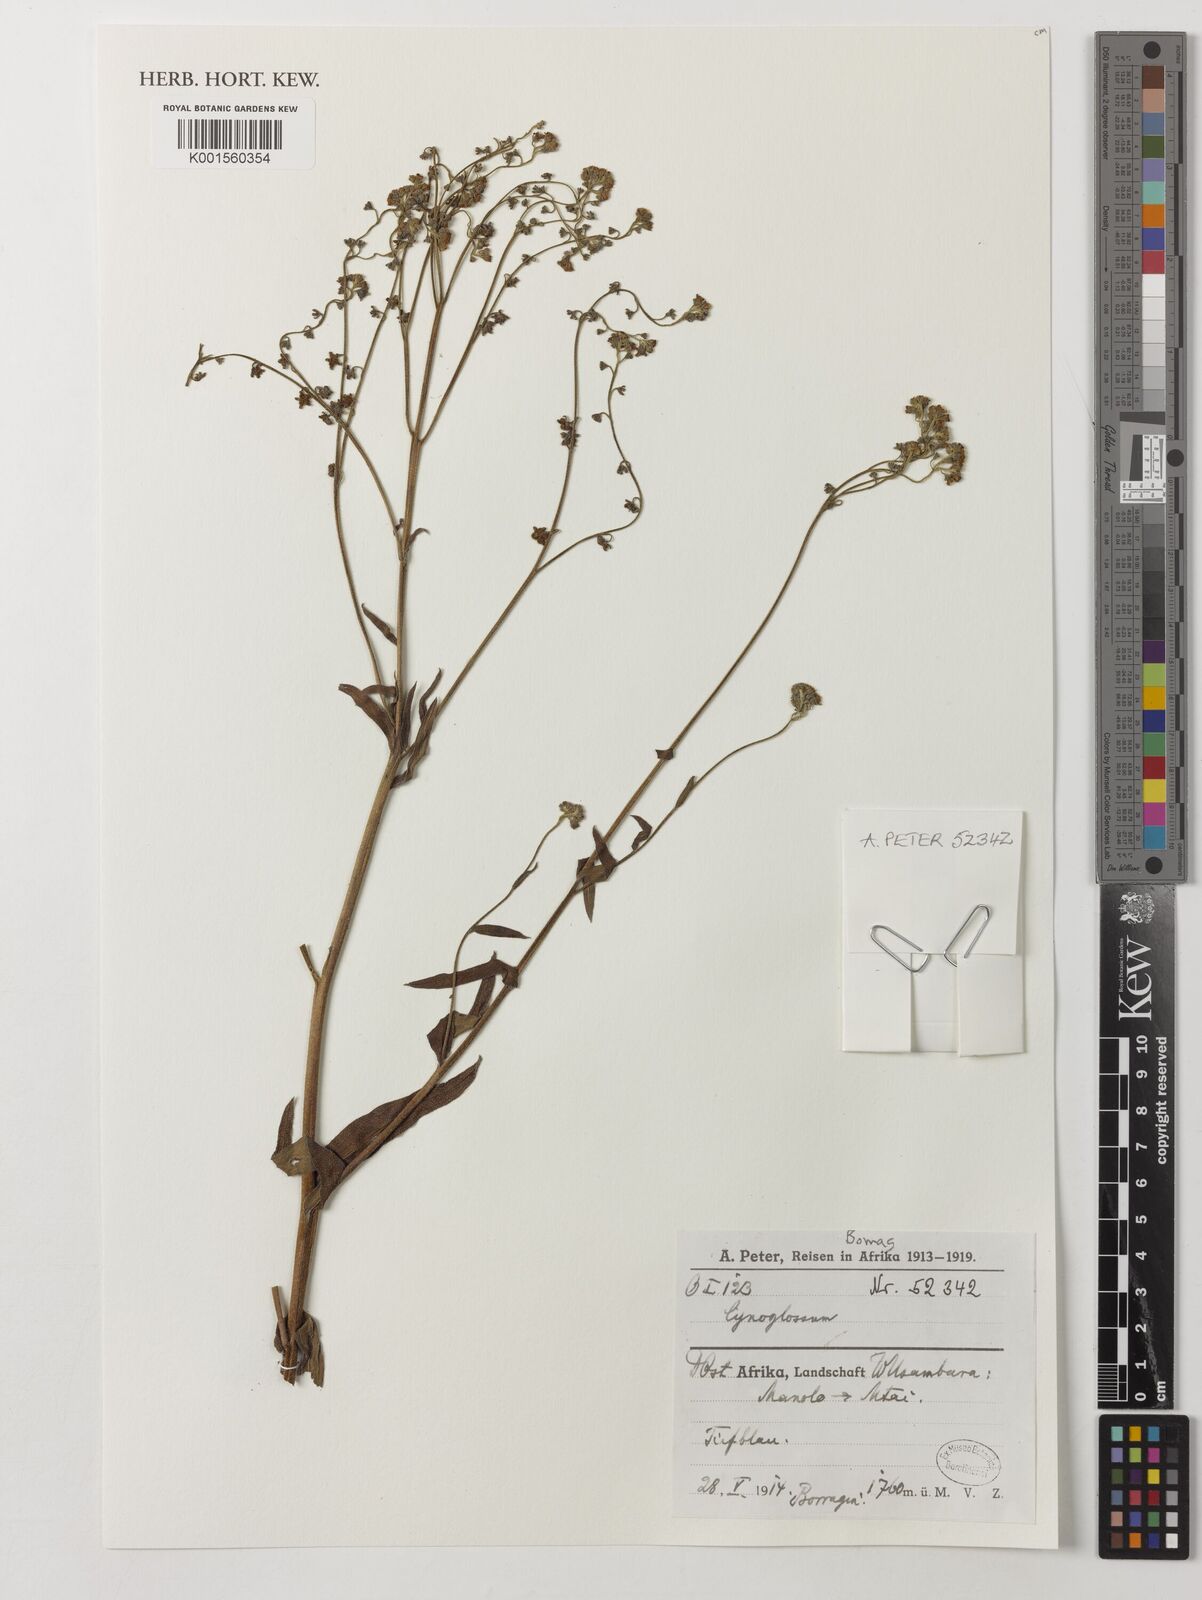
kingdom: Plantae
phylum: Tracheophyta
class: Magnoliopsida
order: Boraginales
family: Boraginaceae
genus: Cynoglossum
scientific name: Cynoglossum
